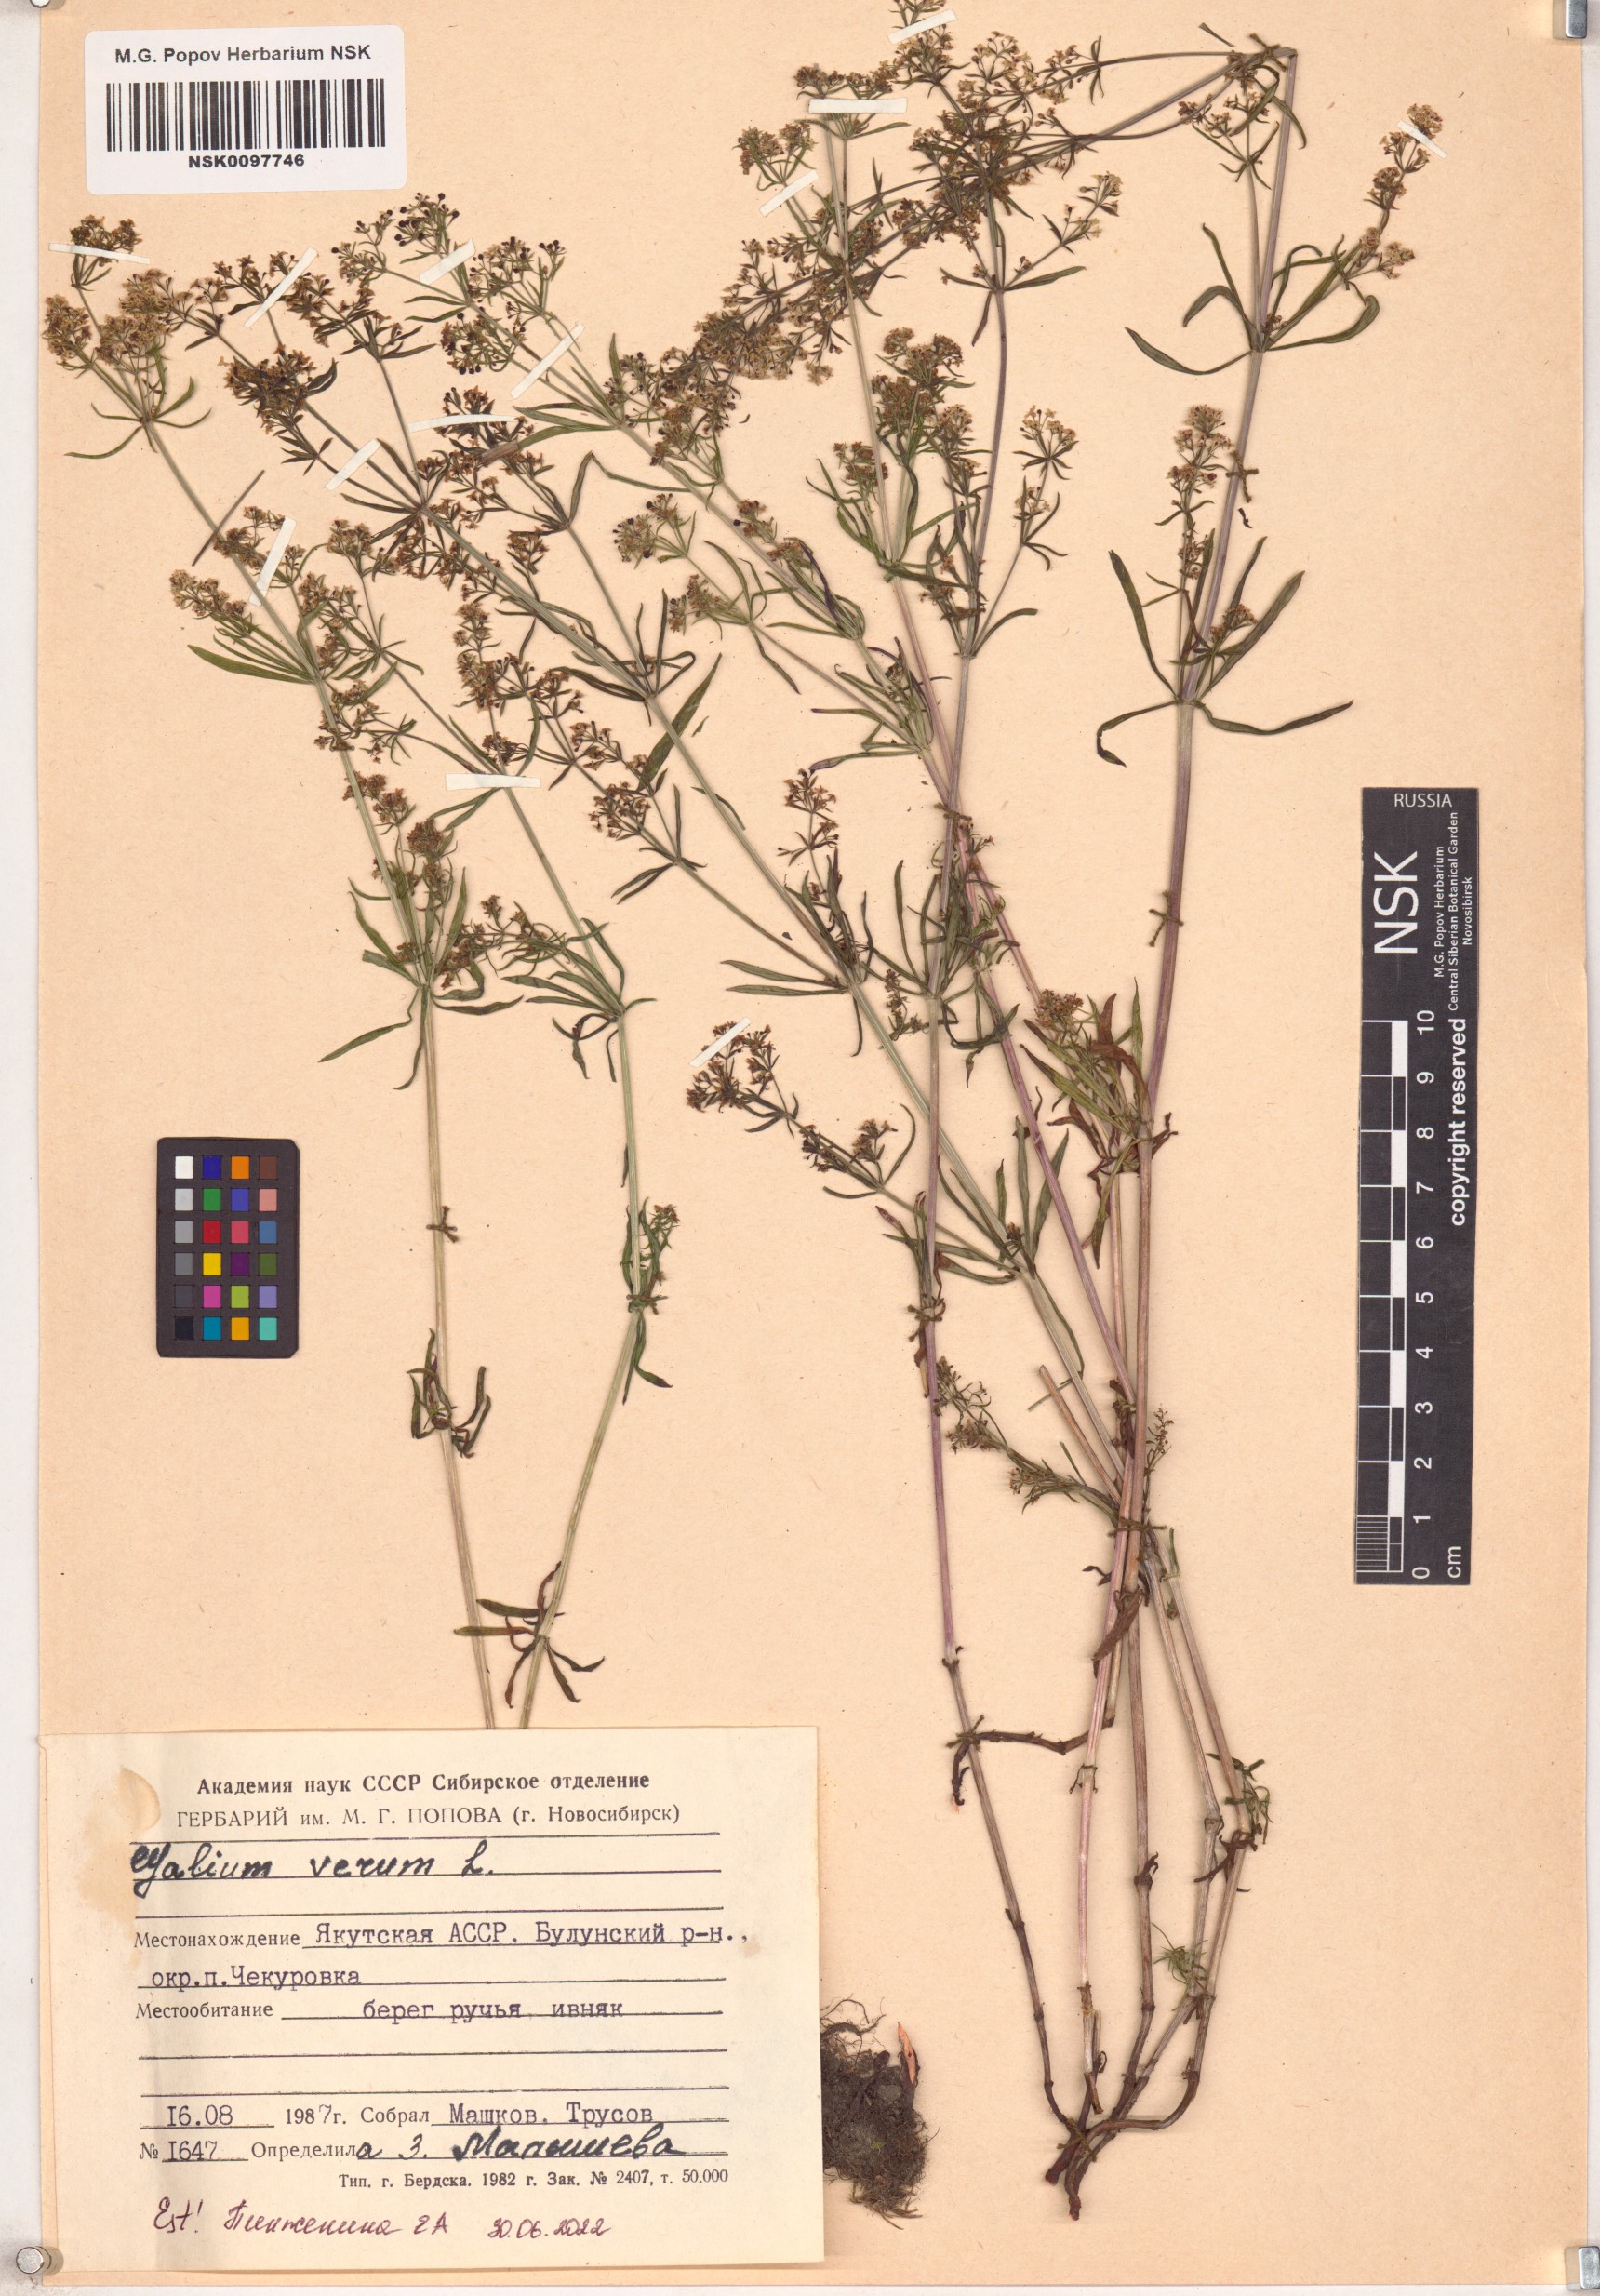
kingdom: Plantae
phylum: Tracheophyta
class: Magnoliopsida
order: Gentianales
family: Rubiaceae
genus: Galium
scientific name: Galium verum
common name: Lady's bedstraw
